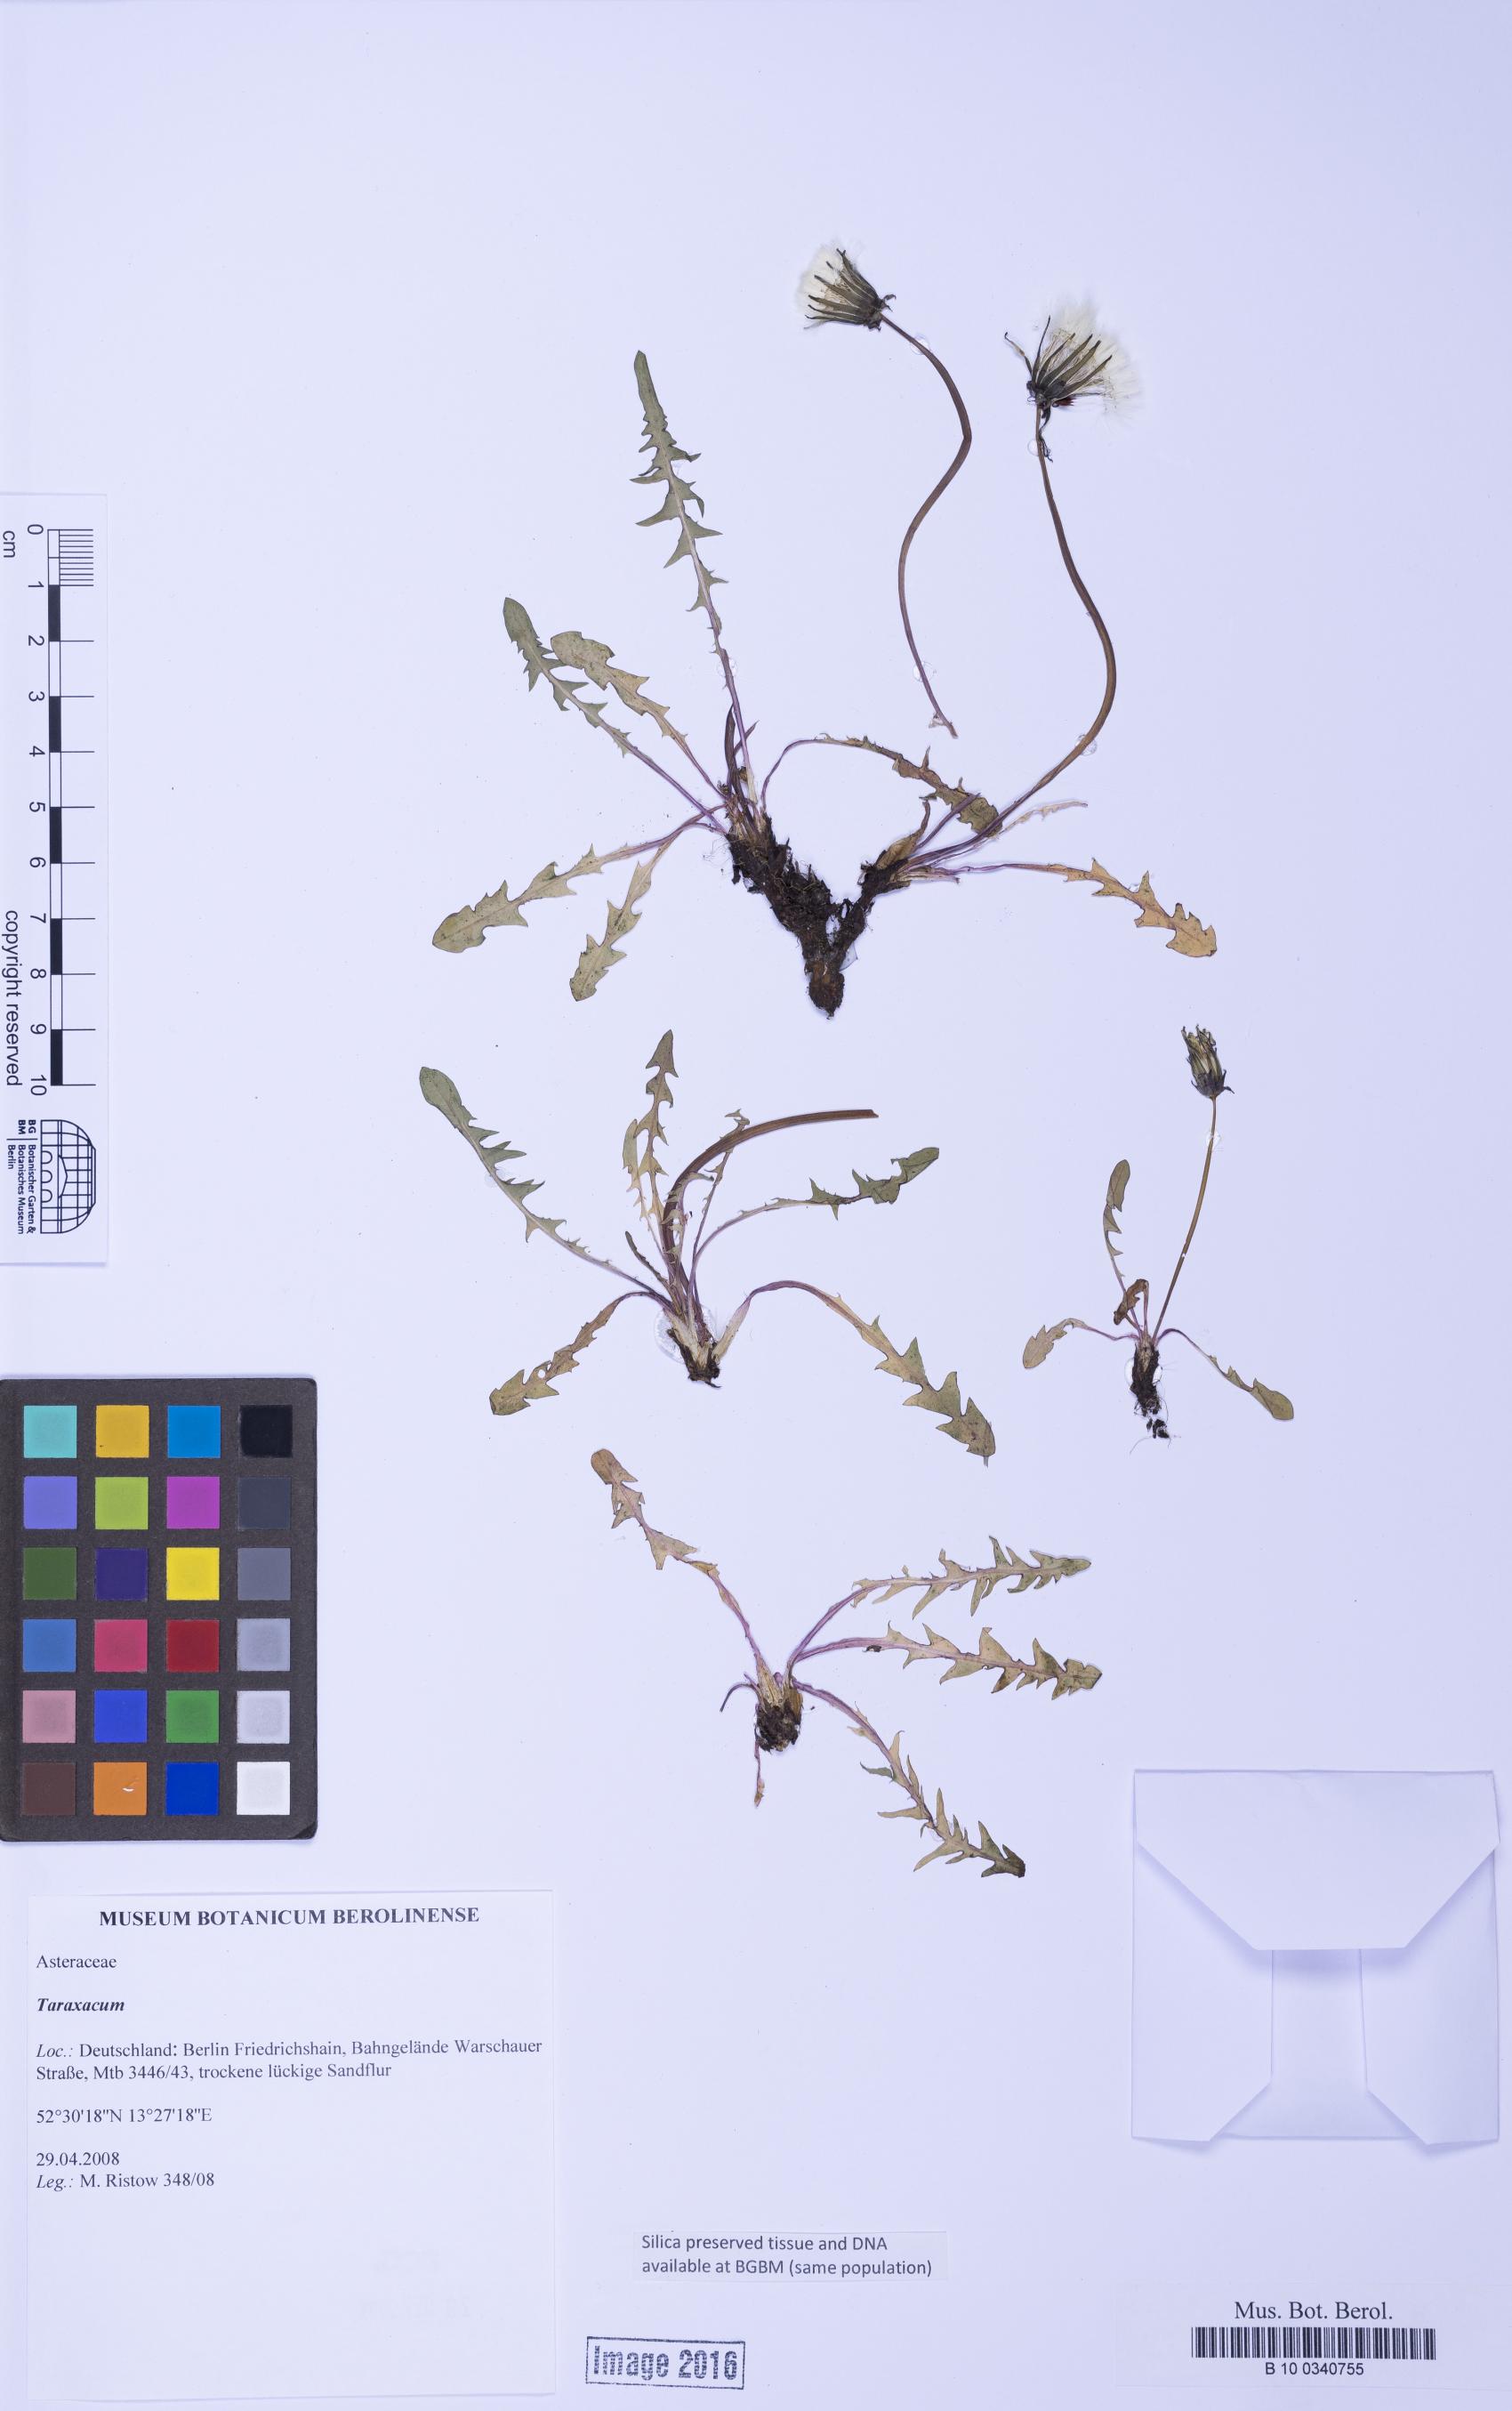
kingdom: Plantae
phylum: Tracheophyta
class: Magnoliopsida
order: Asterales
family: Asteraceae
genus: Taraxacum
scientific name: Taraxacum
